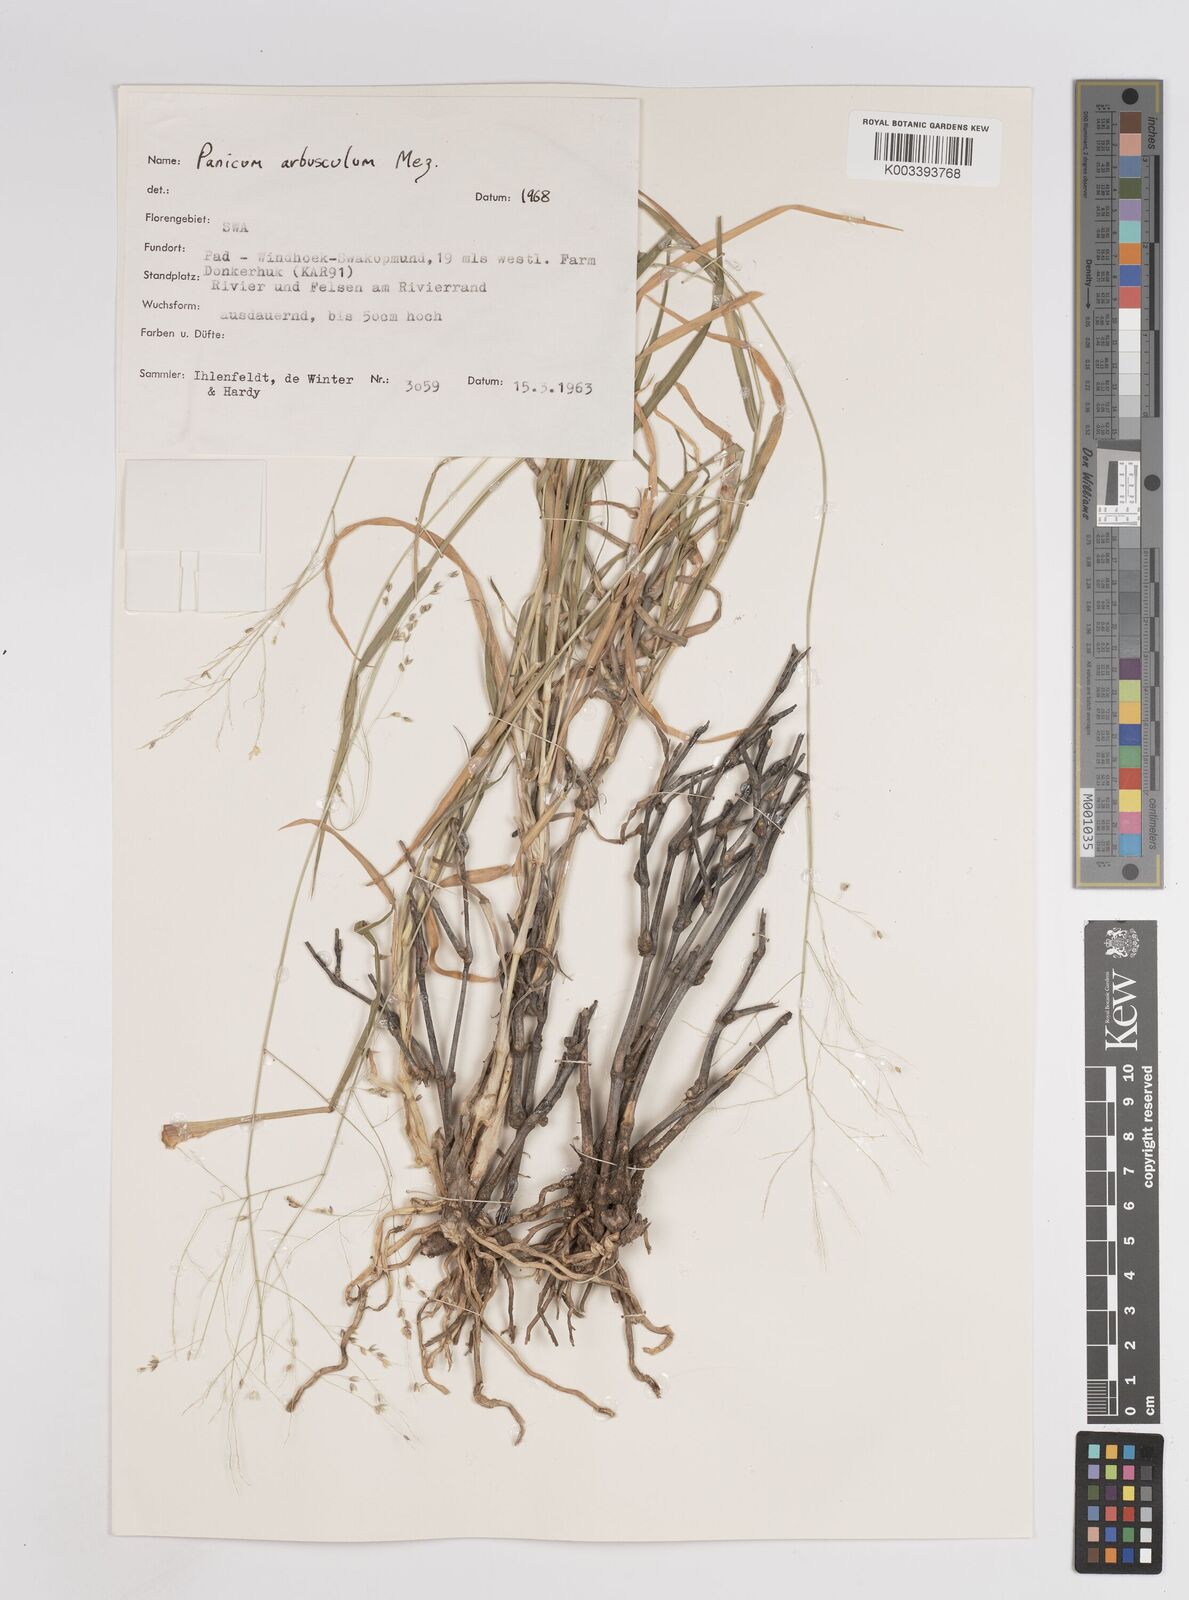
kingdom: Plantae
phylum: Tracheophyta
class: Liliopsida
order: Poales
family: Poaceae
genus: Panicum
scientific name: Panicum arbusculum
